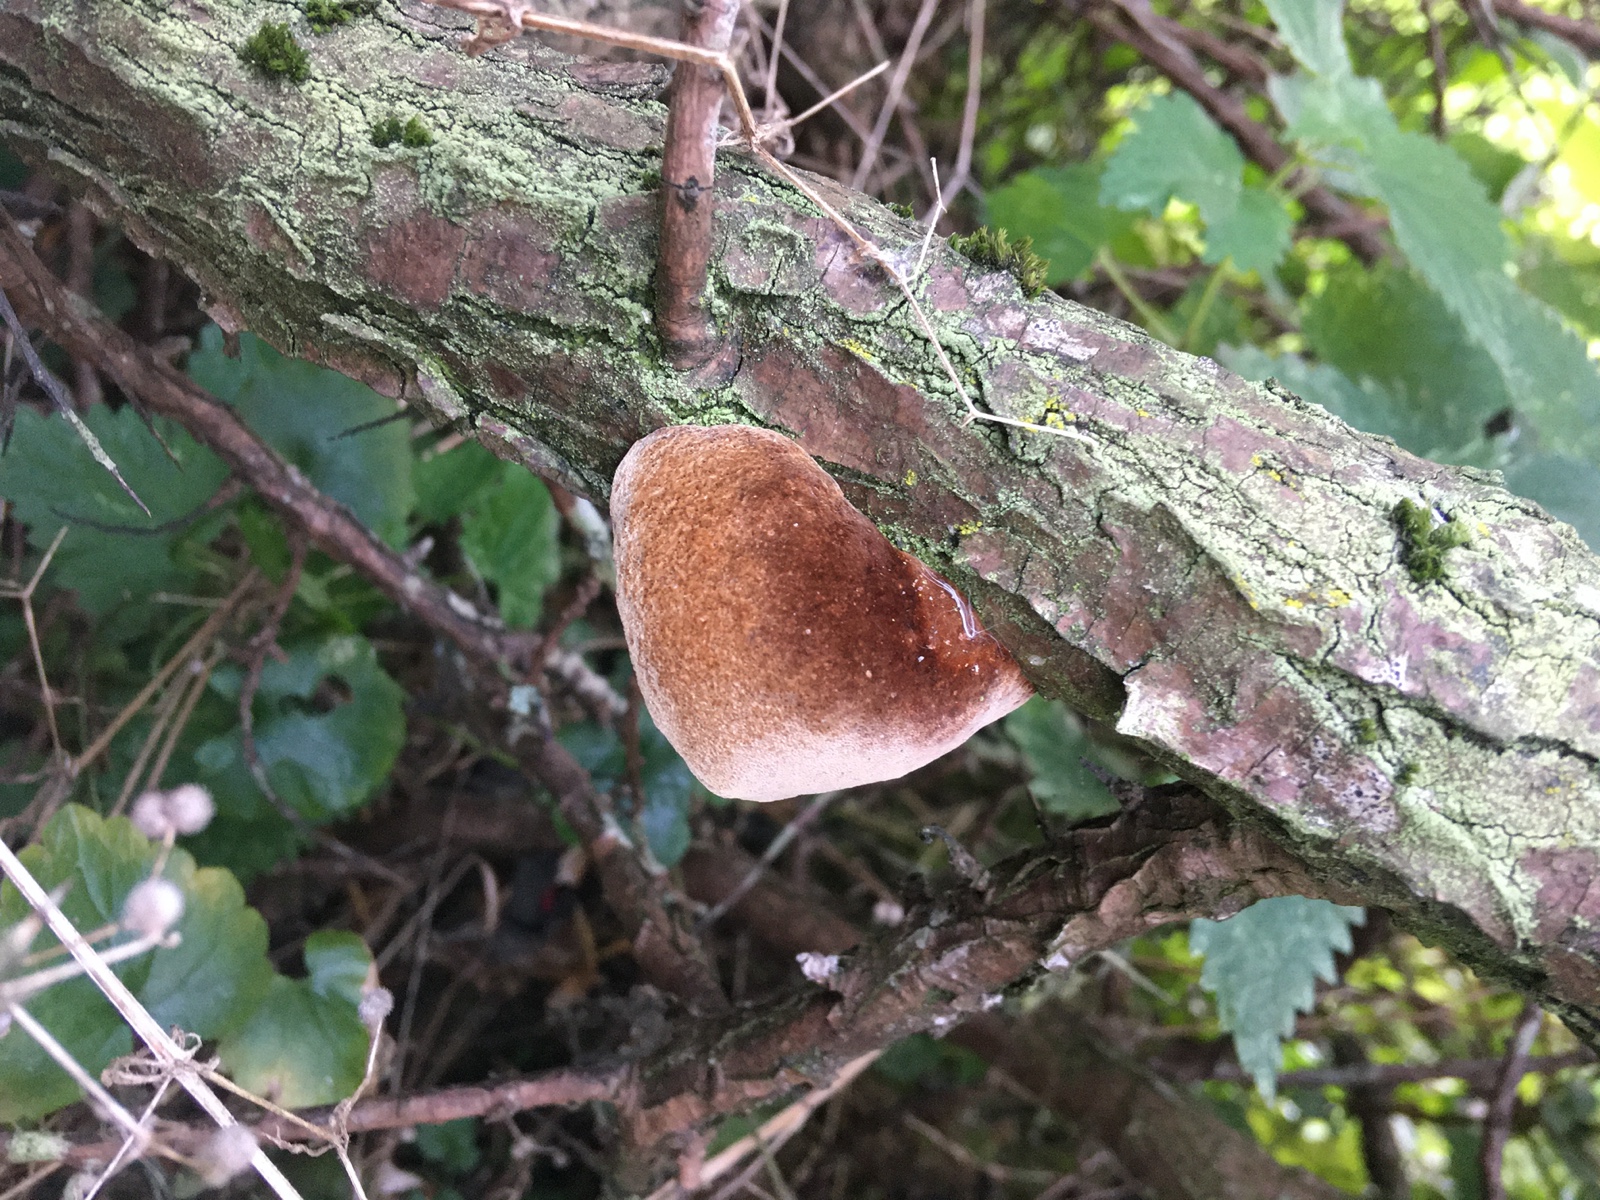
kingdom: Fungi
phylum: Basidiomycota
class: Agaricomycetes
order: Hymenochaetales
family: Hymenochaetaceae
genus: Fomitiporia
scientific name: Fomitiporia hippophaeicola
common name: havtorn-ildporesvamp
